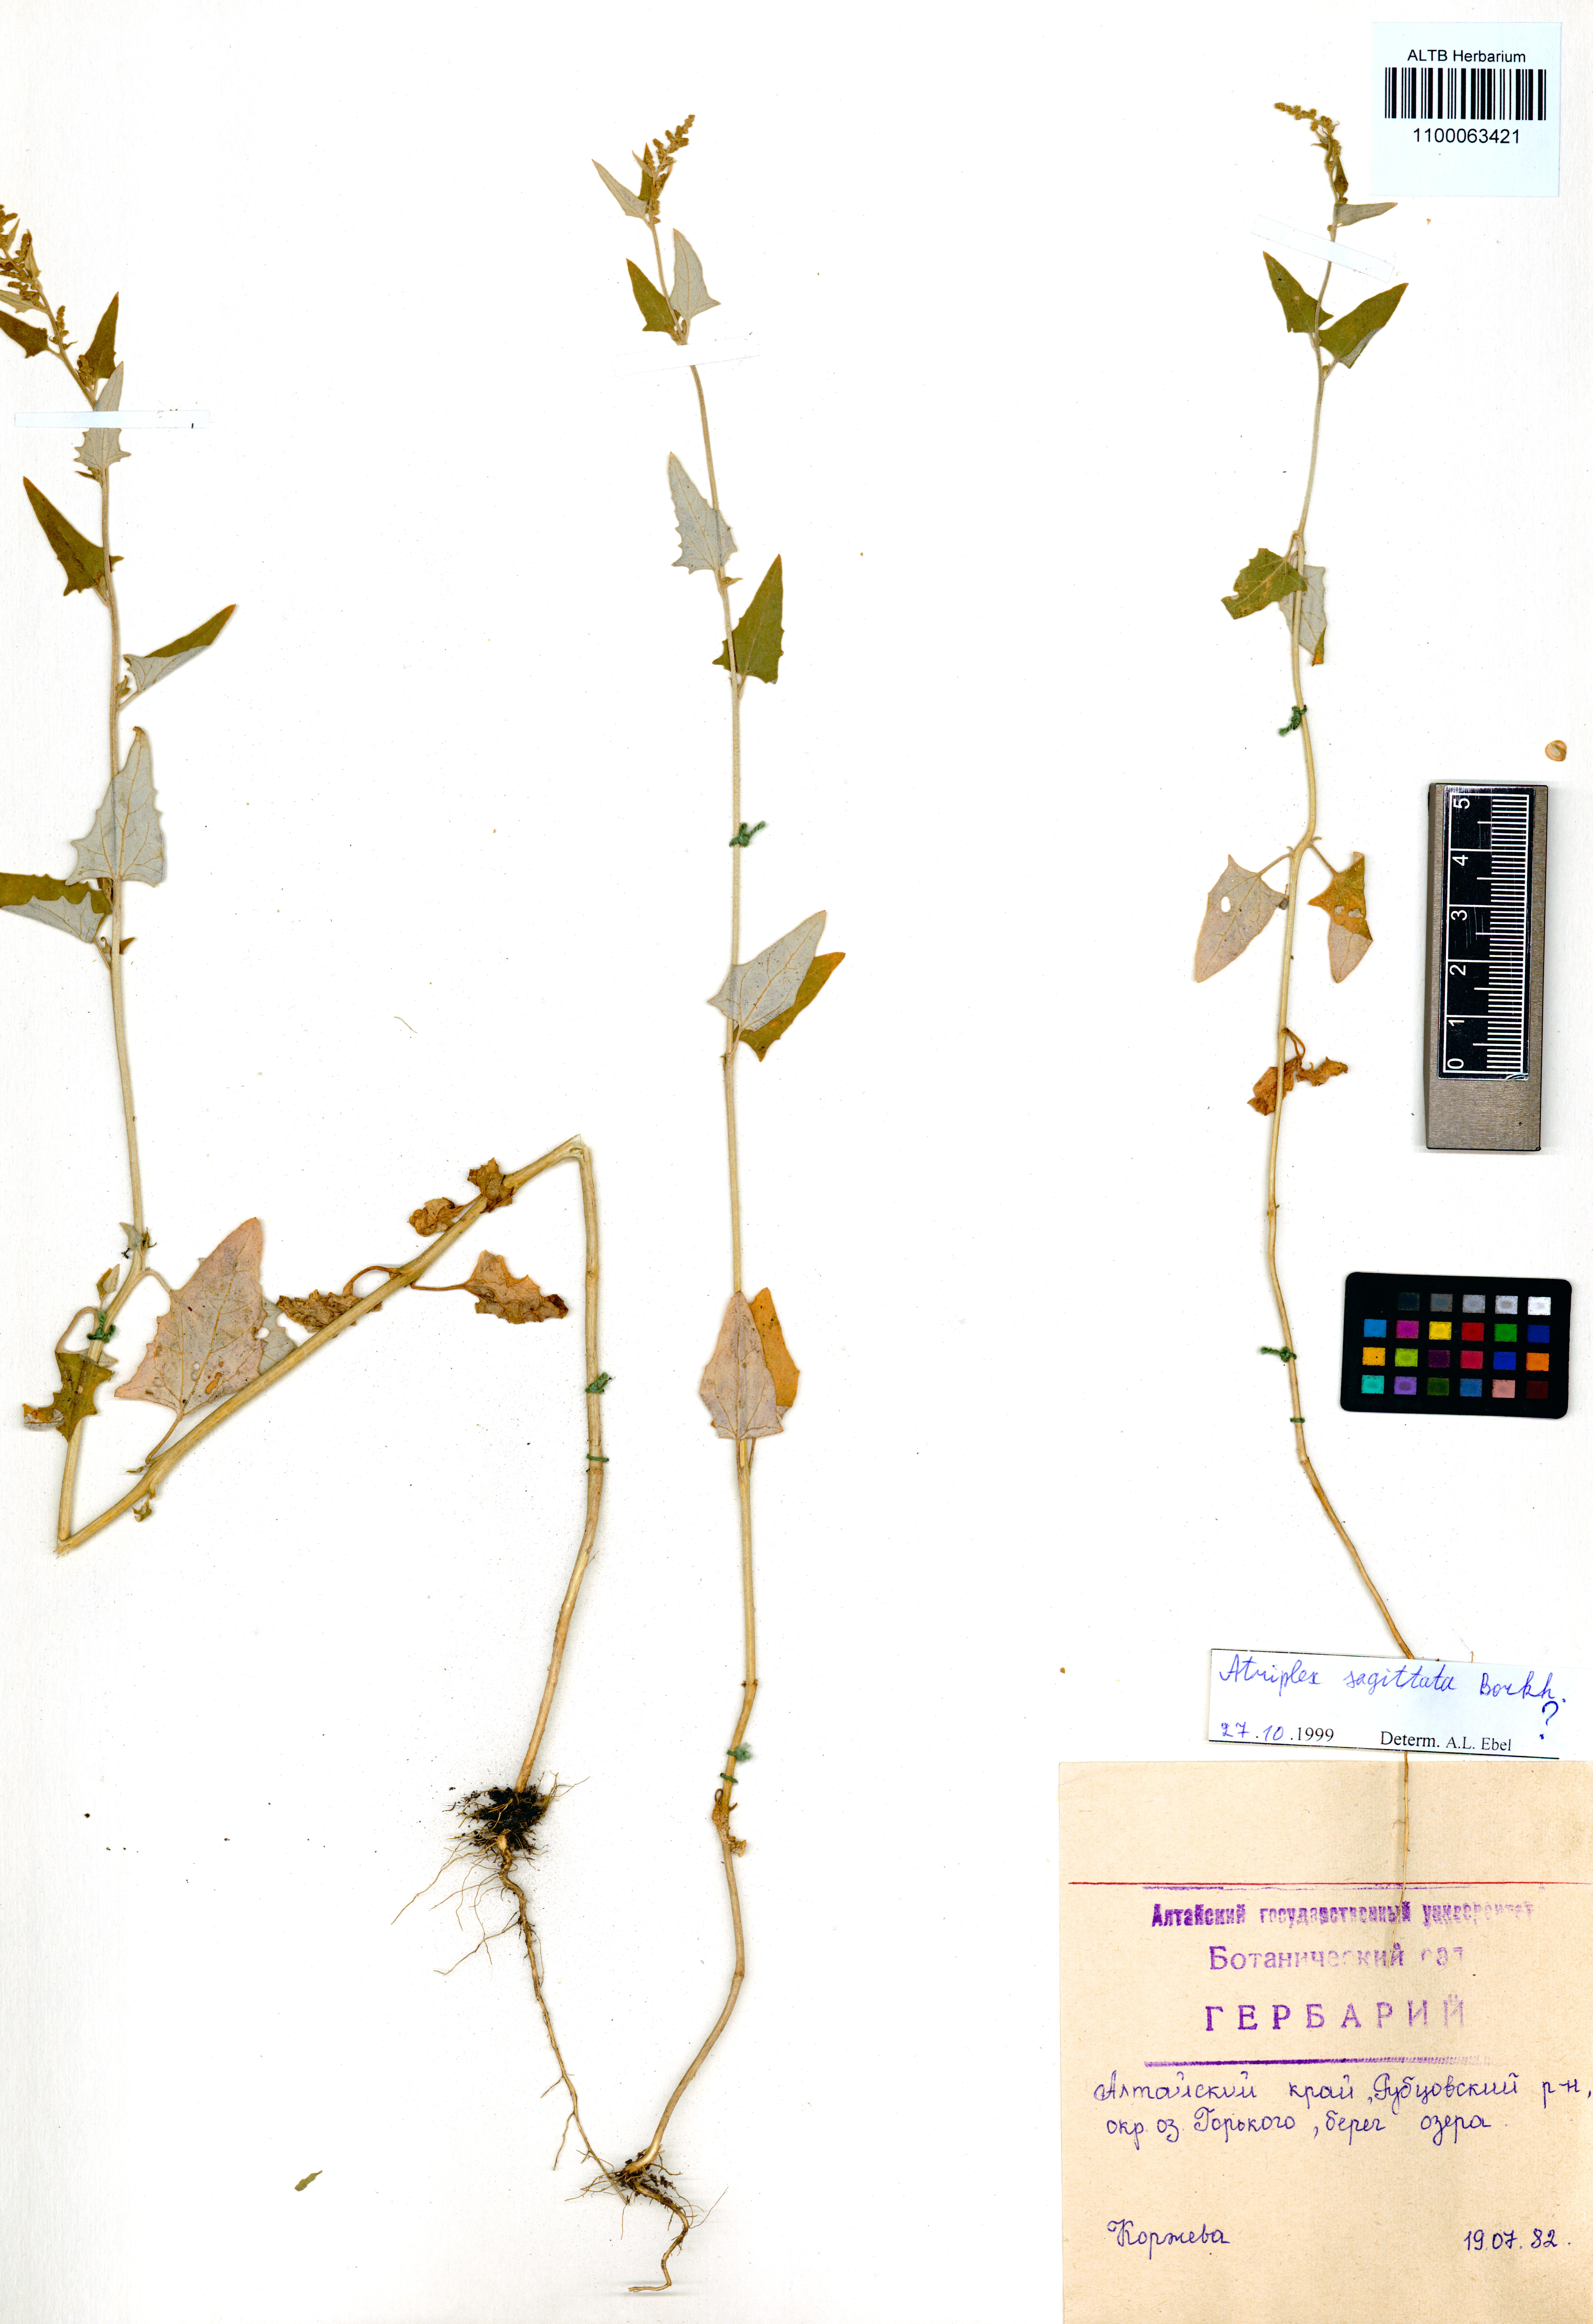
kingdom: Plantae
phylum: Tracheophyta
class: Magnoliopsida
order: Caryophyllales
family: Amaranthaceae
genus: Atriplex
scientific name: Atriplex sagittata
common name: Purple orache
